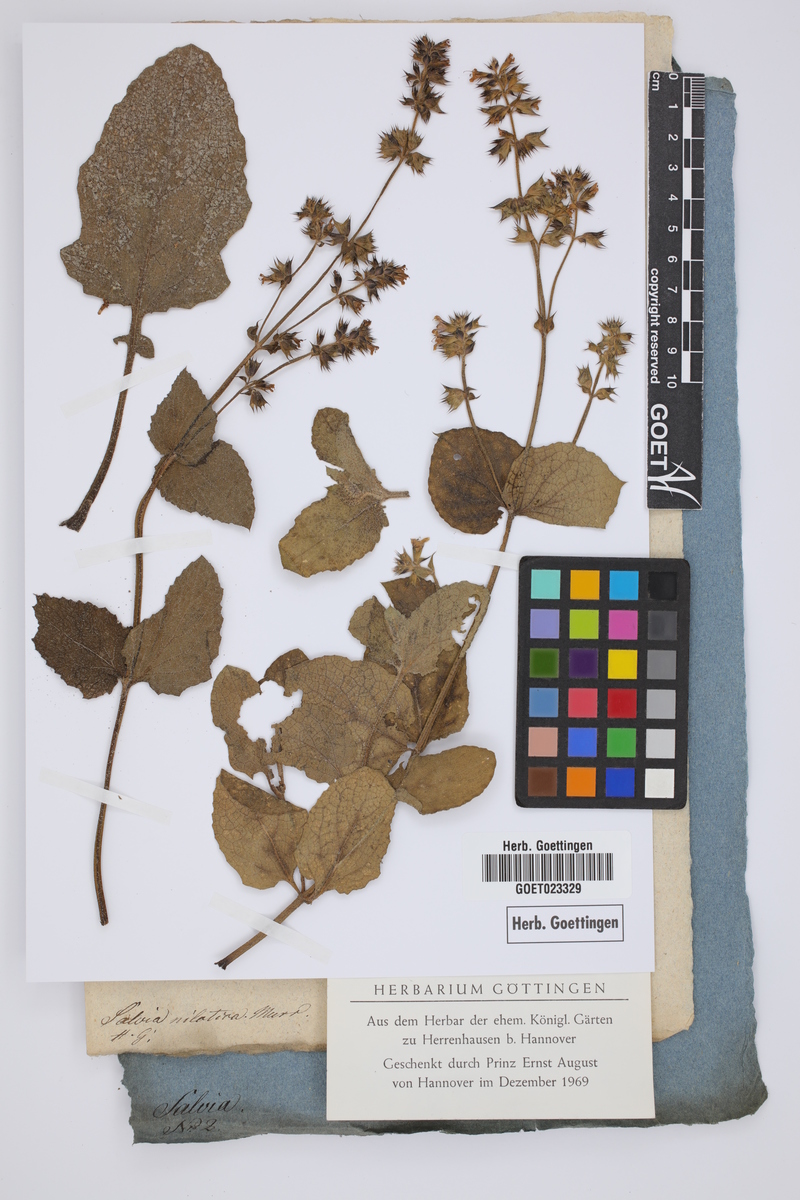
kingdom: Plantae
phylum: Tracheophyta
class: Magnoliopsida
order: Lamiales
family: Lamiaceae
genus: Salvia
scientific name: Salvia nilotica
